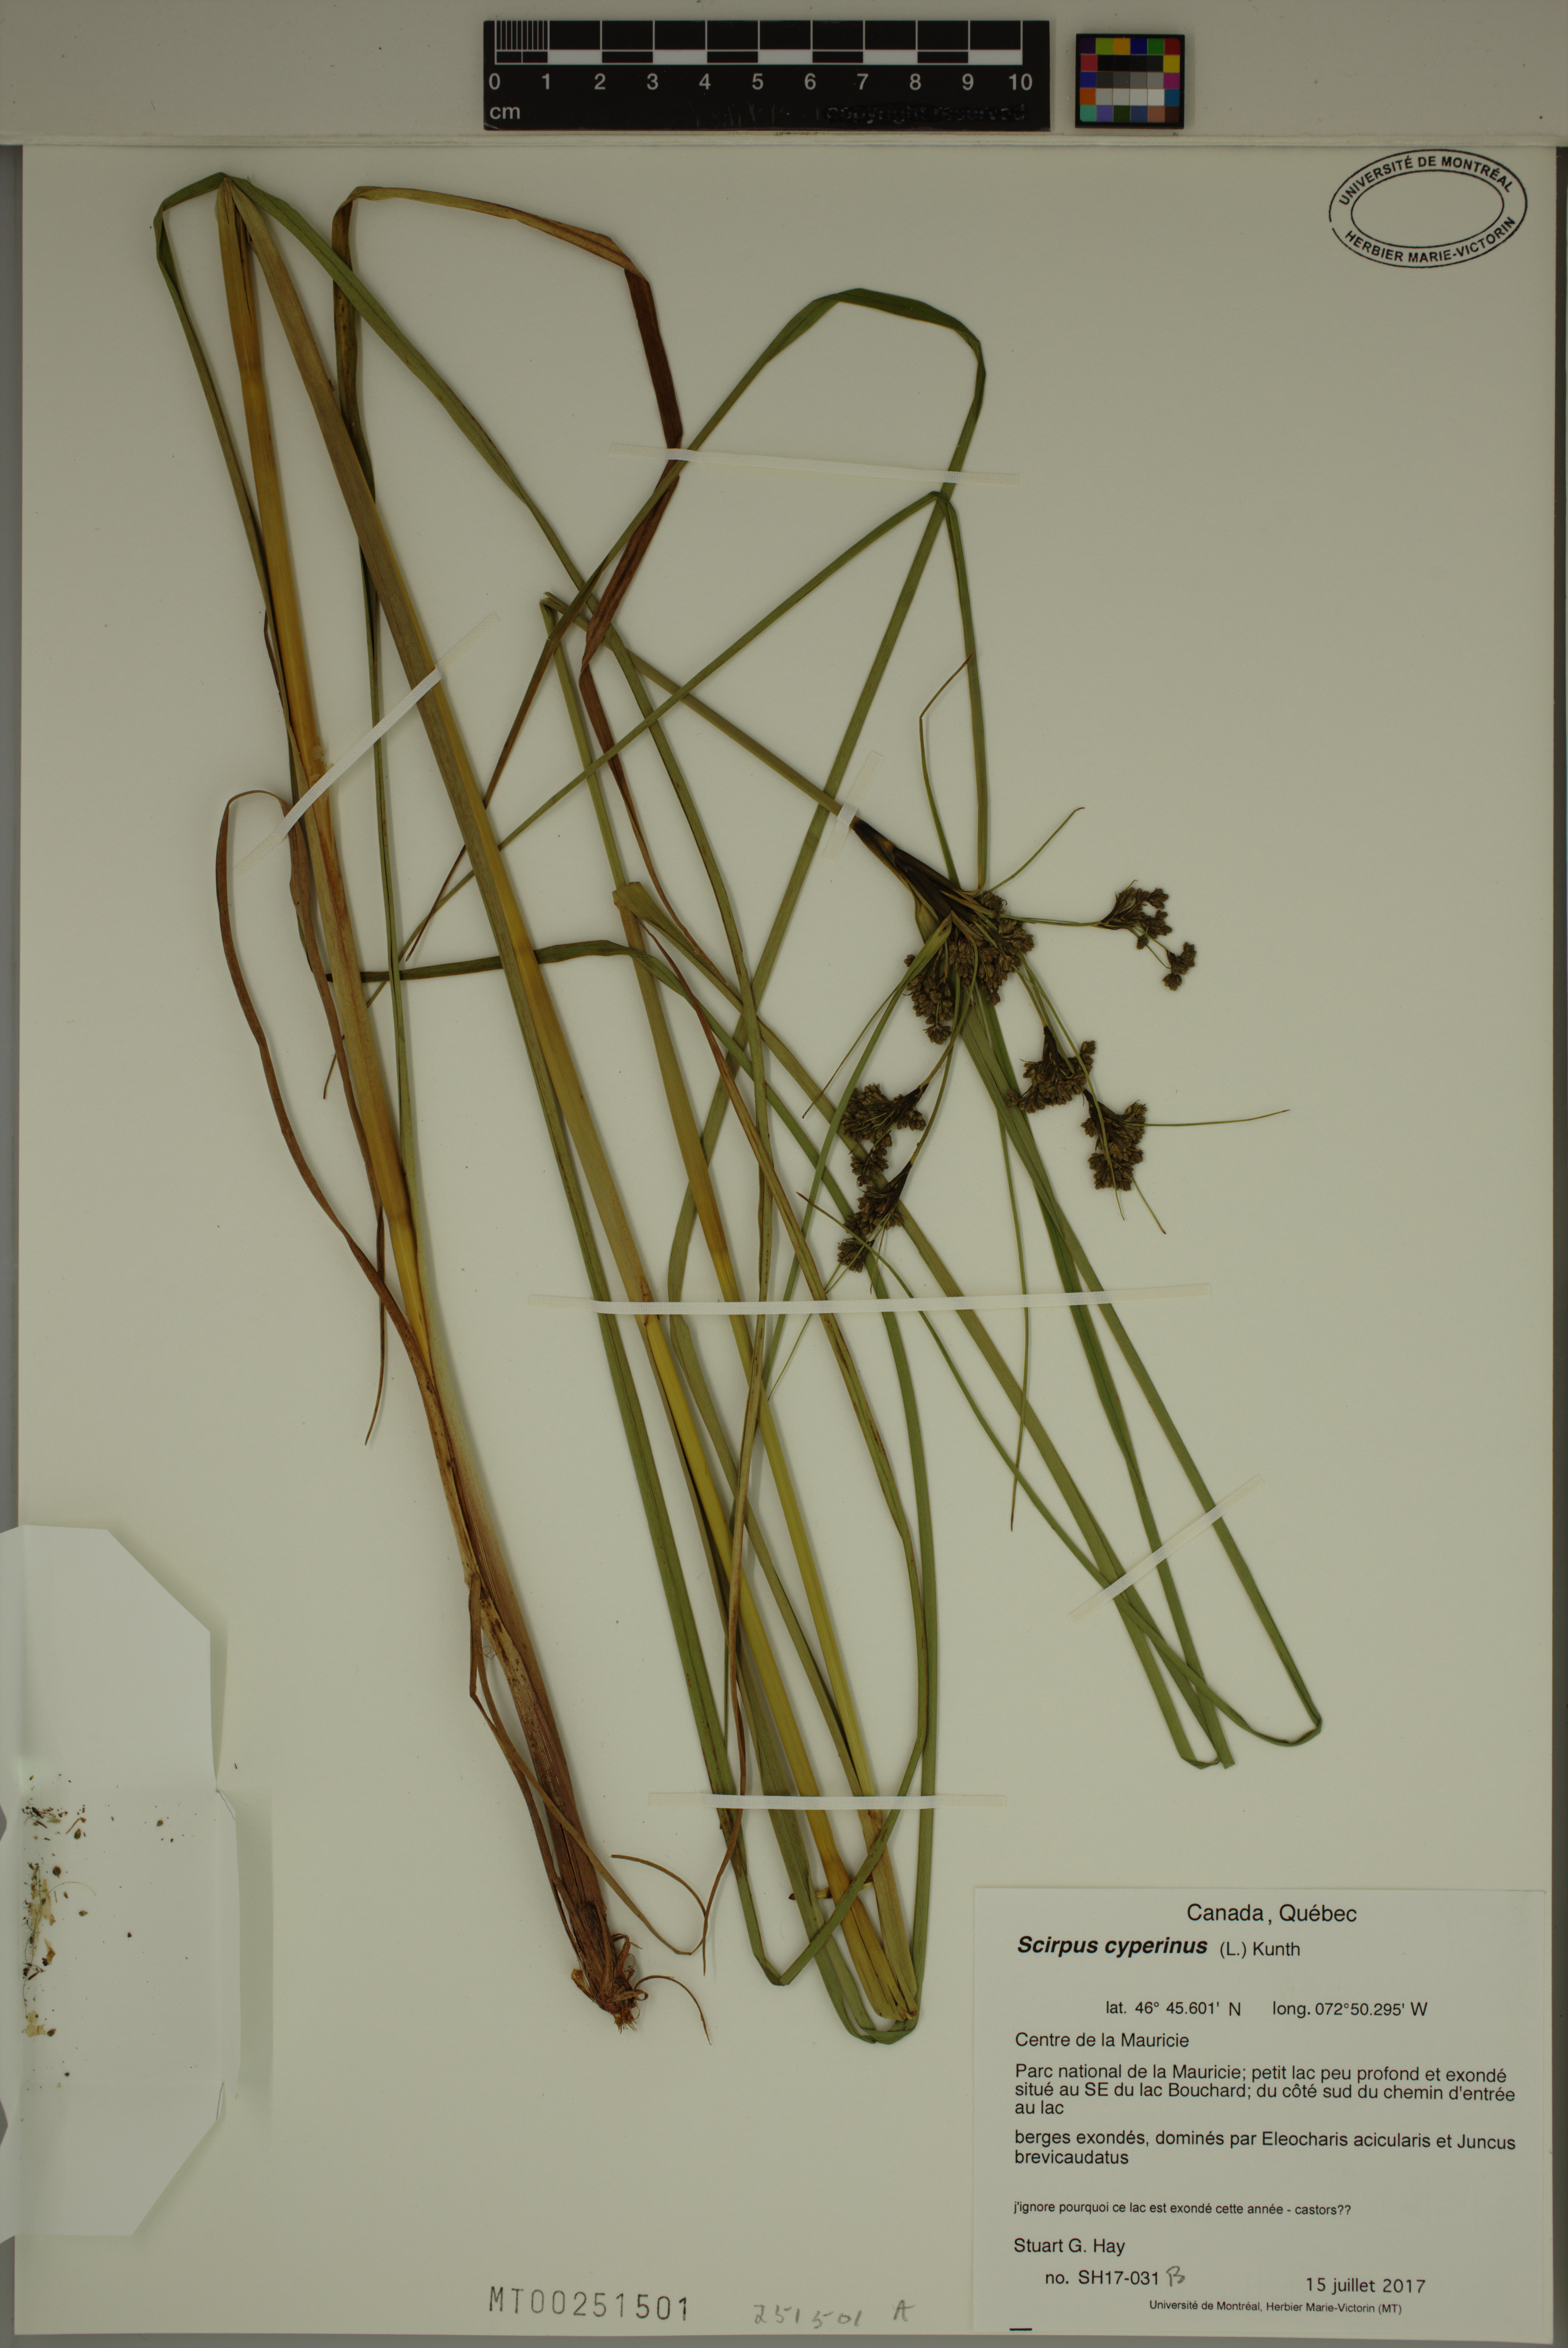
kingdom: Plantae
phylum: Tracheophyta
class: Liliopsida
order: Poales
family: Cyperaceae
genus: Scirpus
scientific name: Scirpus cyperinus
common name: Black-sheathed bulrush
